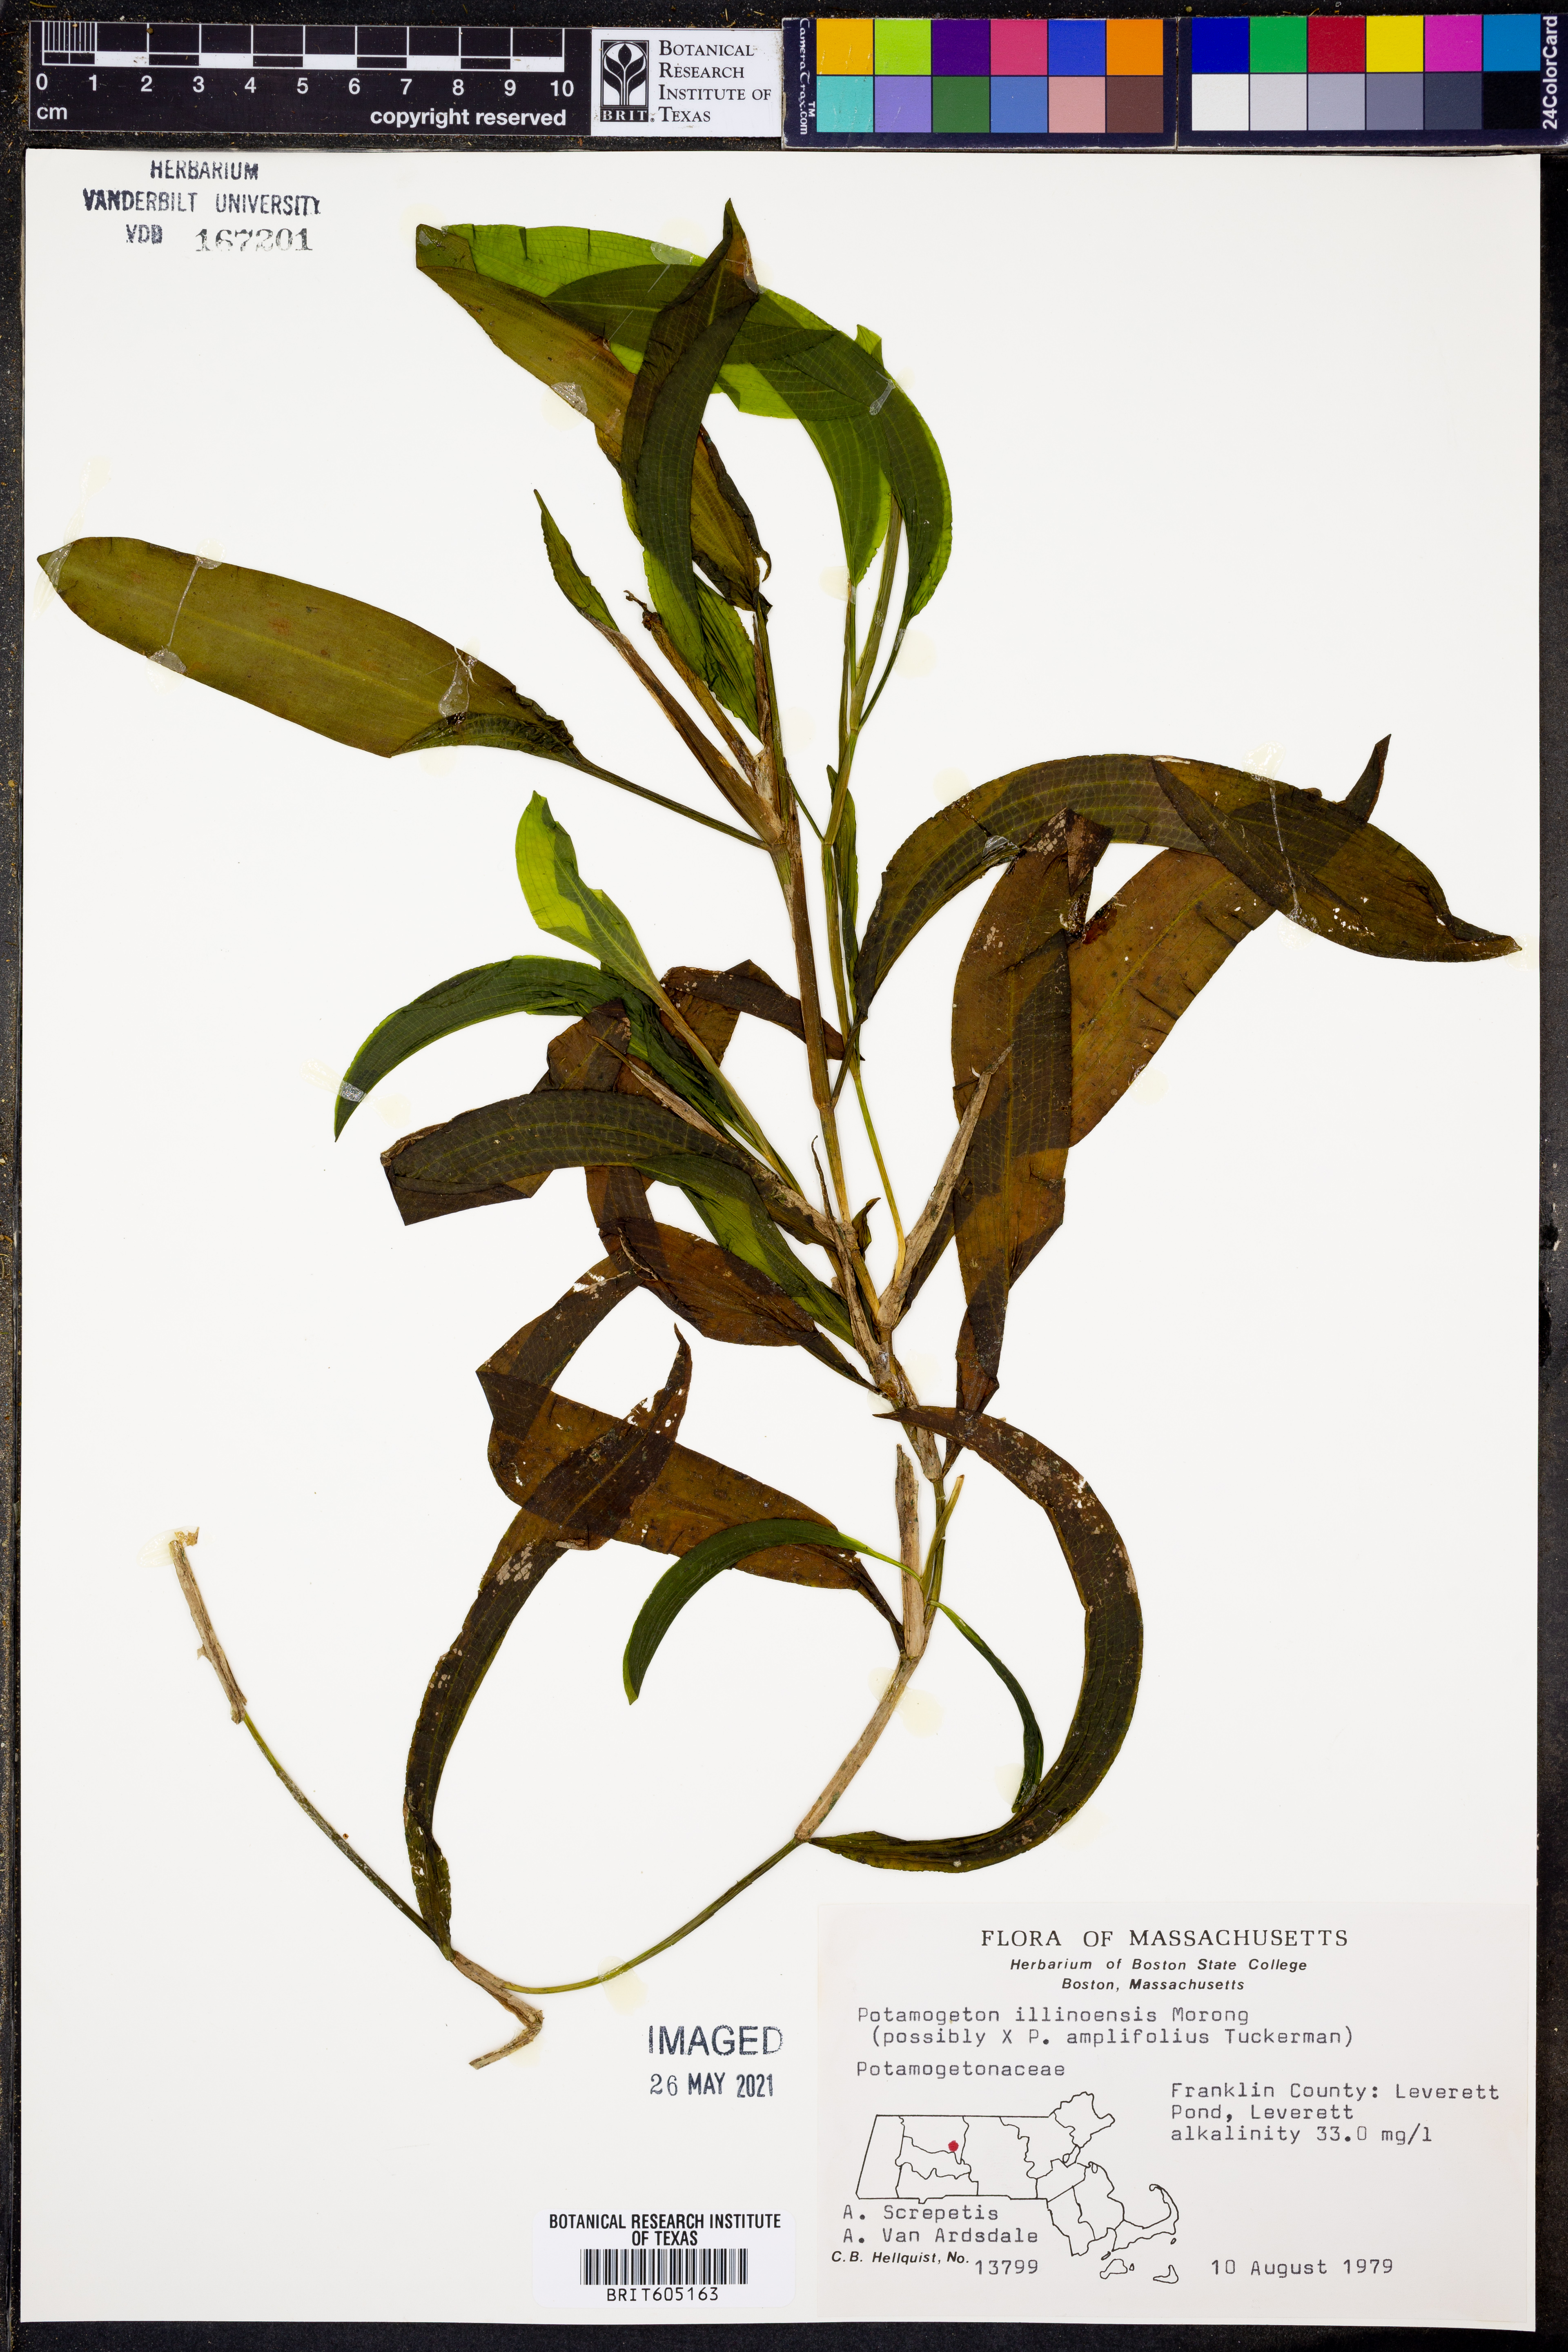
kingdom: Plantae
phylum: Tracheophyta
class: Liliopsida
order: Alismatales
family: Potamogetonaceae
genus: Potamogeton
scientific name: Potamogeton illinoensis
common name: Illinois pondweed
